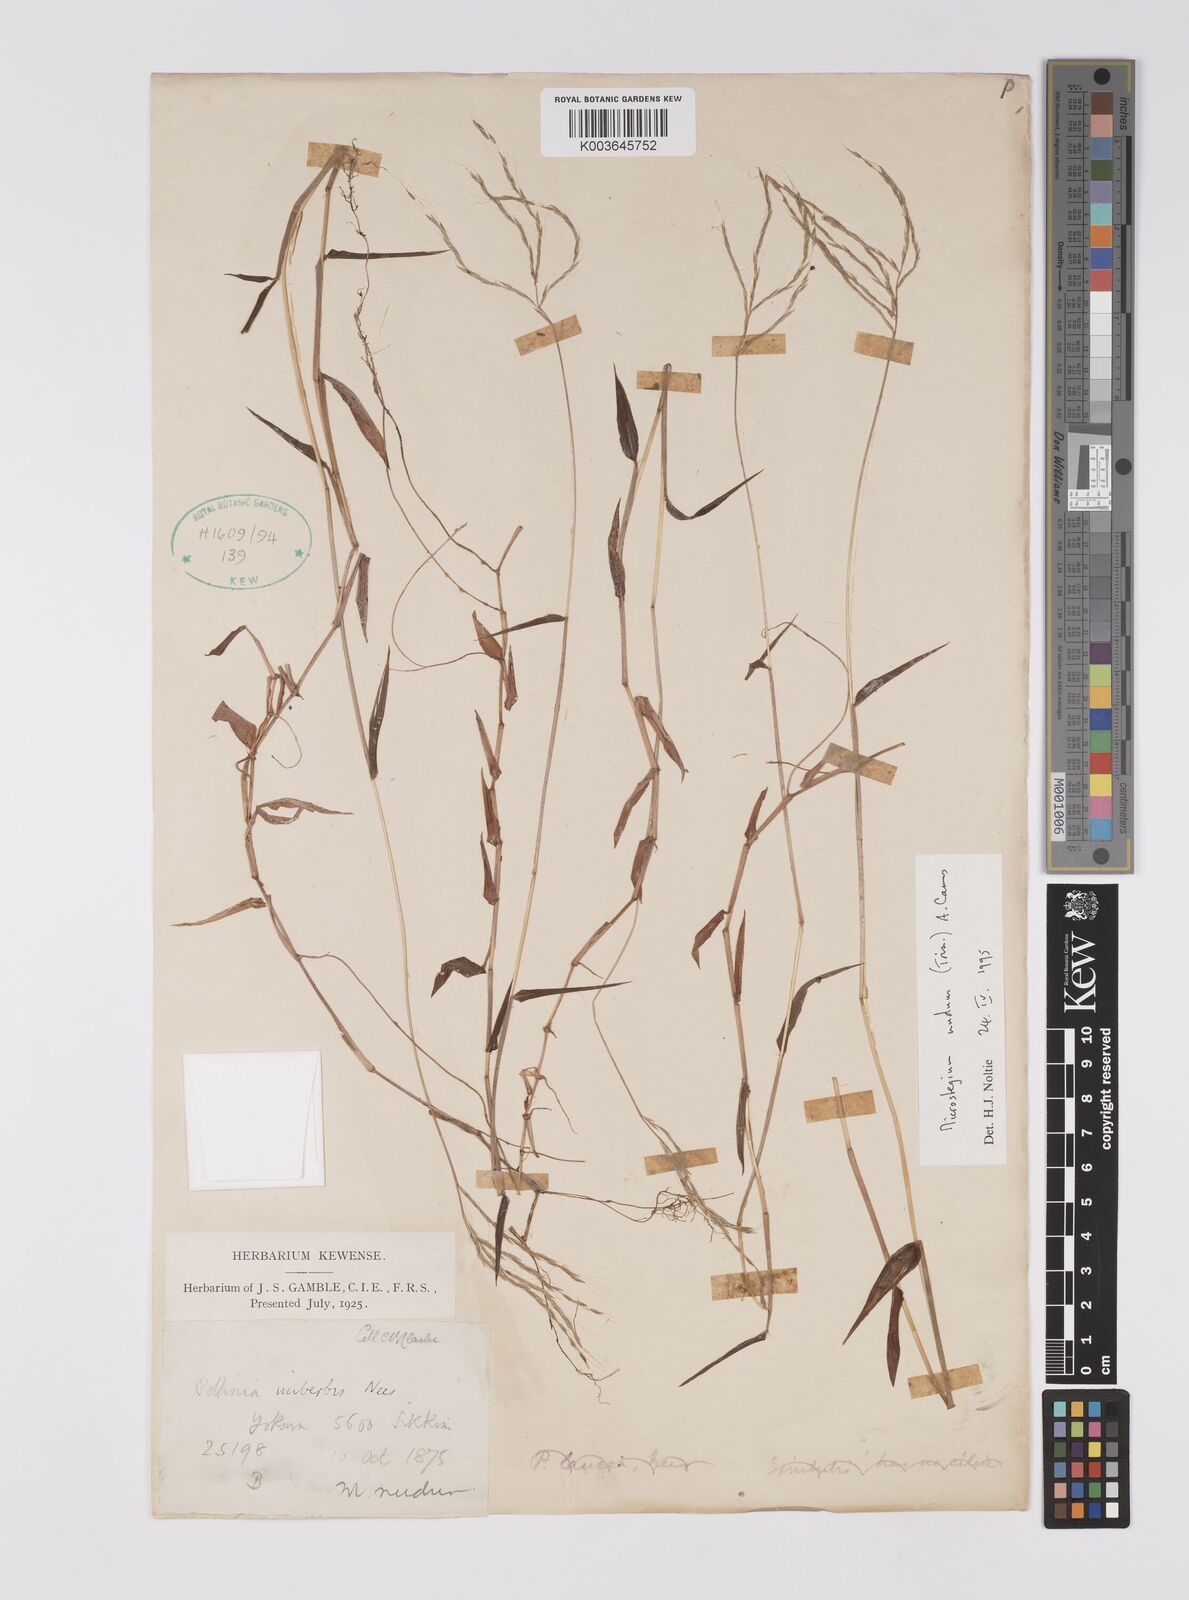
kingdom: Plantae
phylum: Tracheophyta
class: Liliopsida
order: Poales
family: Poaceae
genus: Microstegium
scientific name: Microstegium nudum
